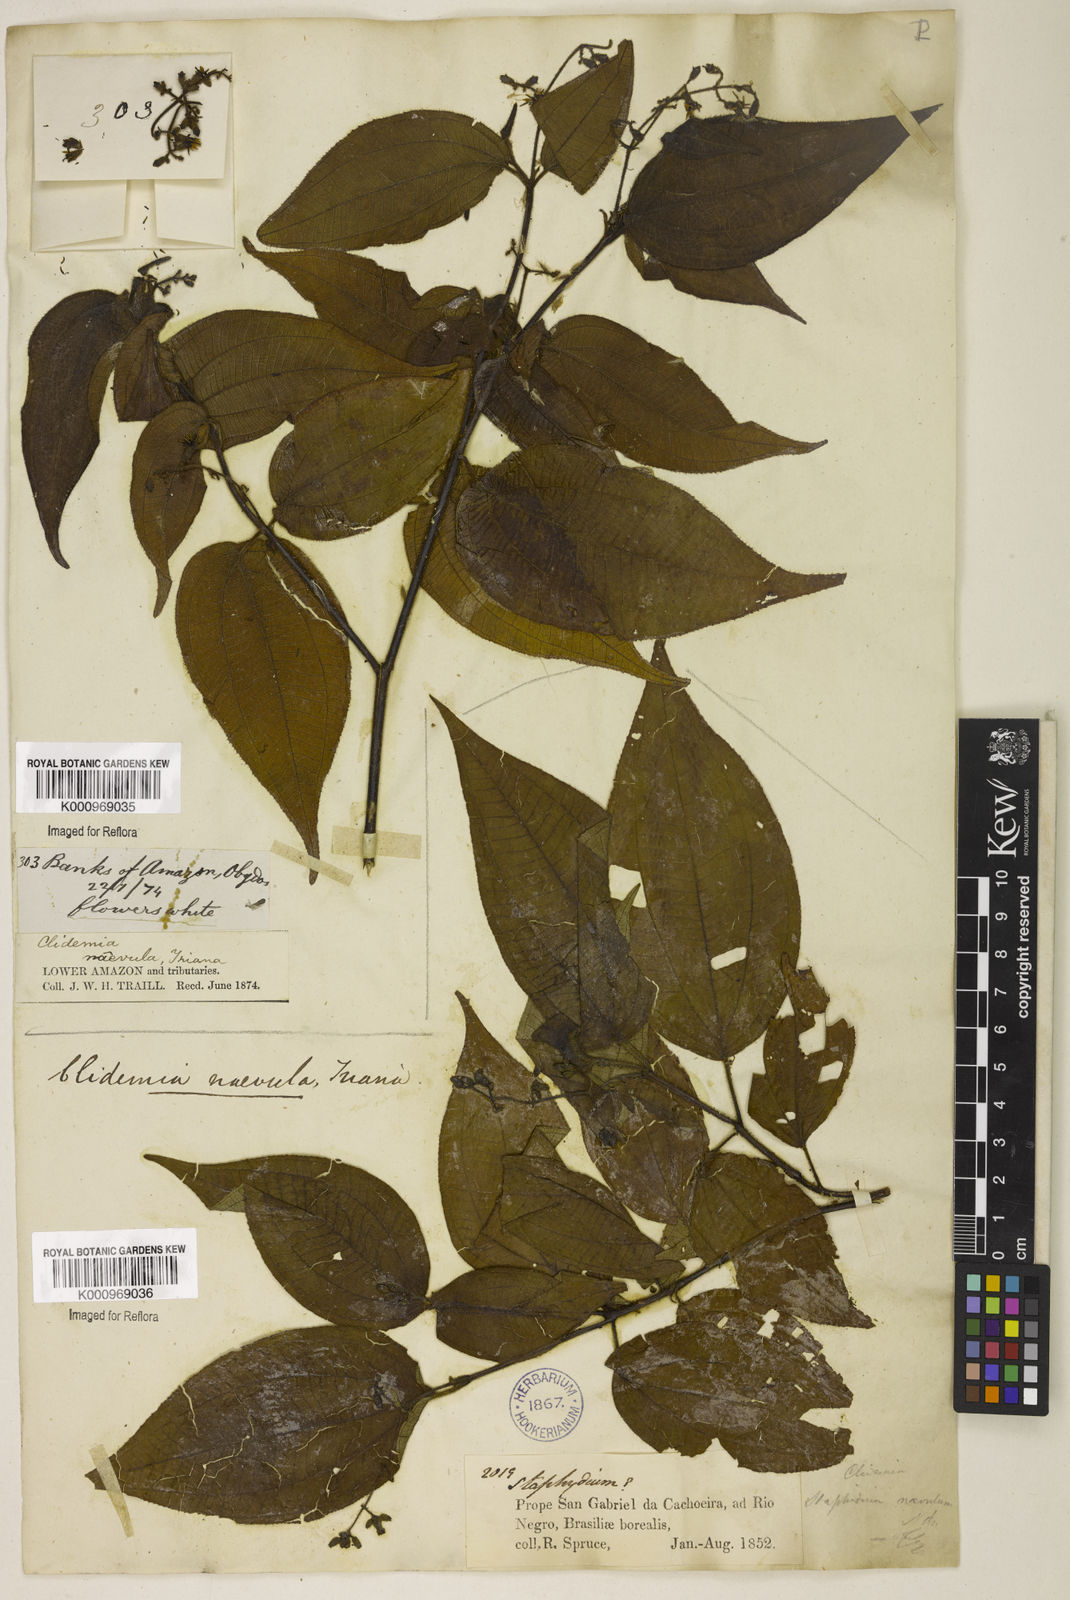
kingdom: Plantae
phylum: Tracheophyta
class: Magnoliopsida
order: Myrtales
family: Melastomataceae
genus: Miconia
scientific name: Miconia heteroclita
